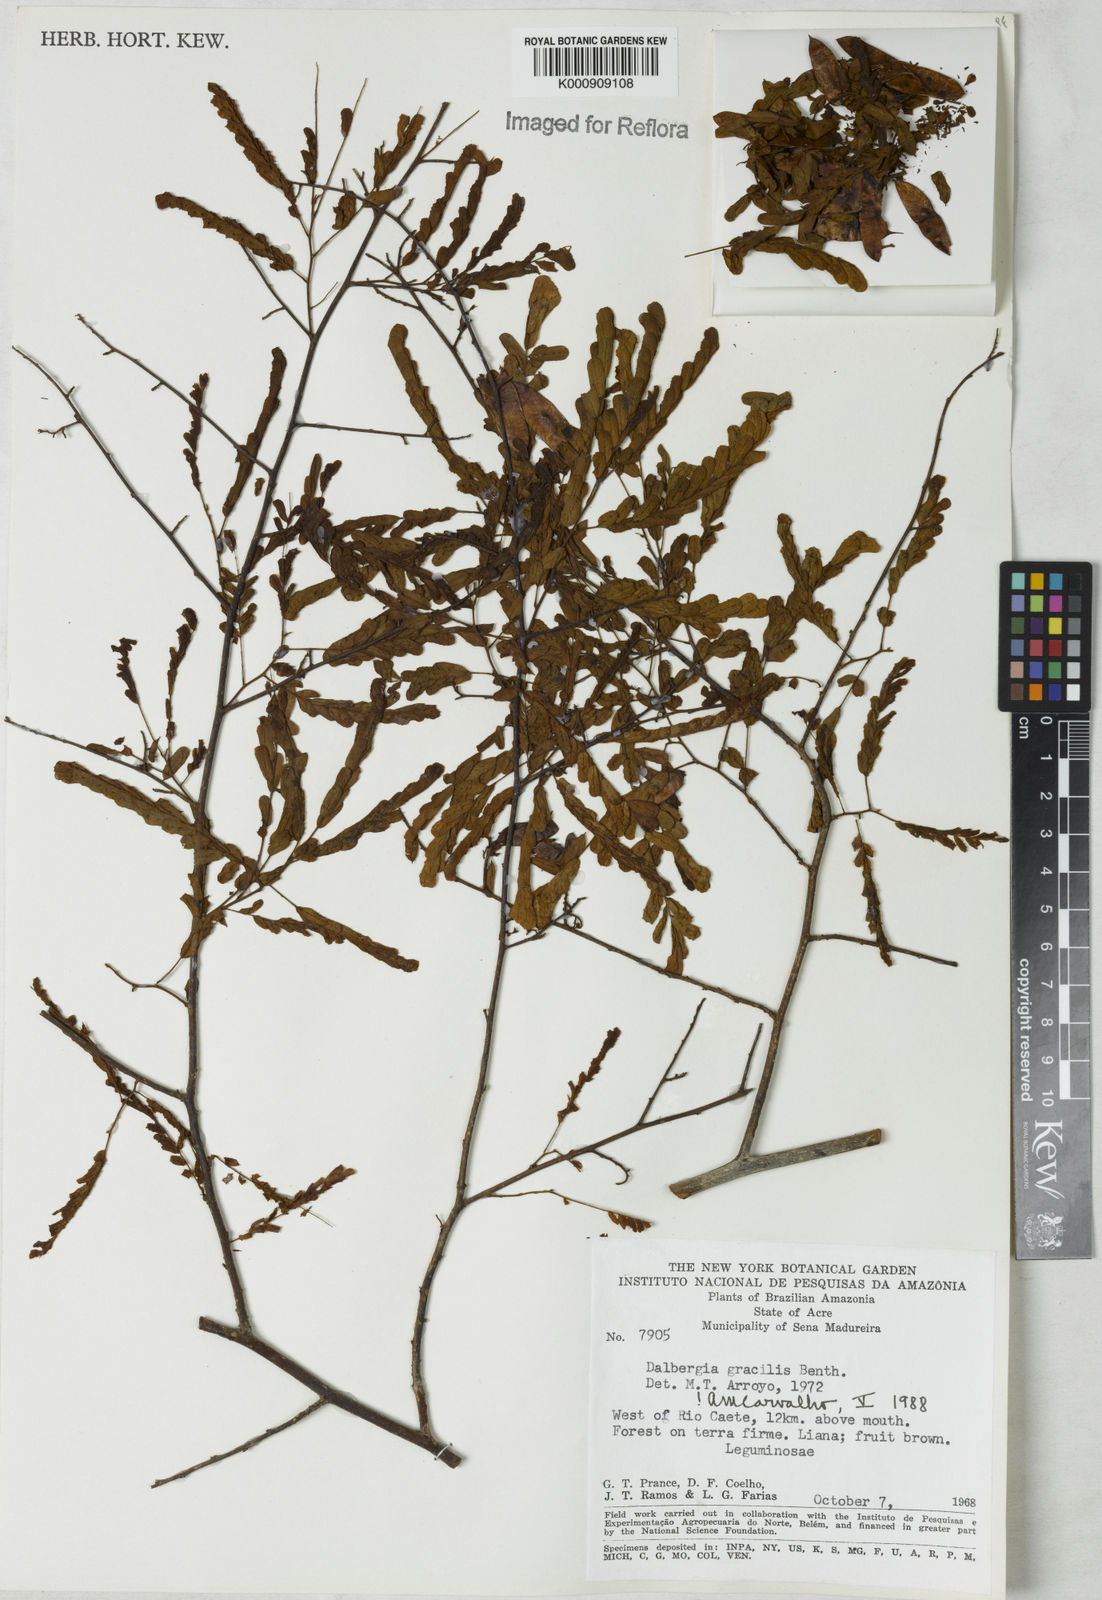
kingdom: Plantae
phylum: Tracheophyta
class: Magnoliopsida
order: Fabales
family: Fabaceae
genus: Dalbergia
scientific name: Dalbergia gracilis
